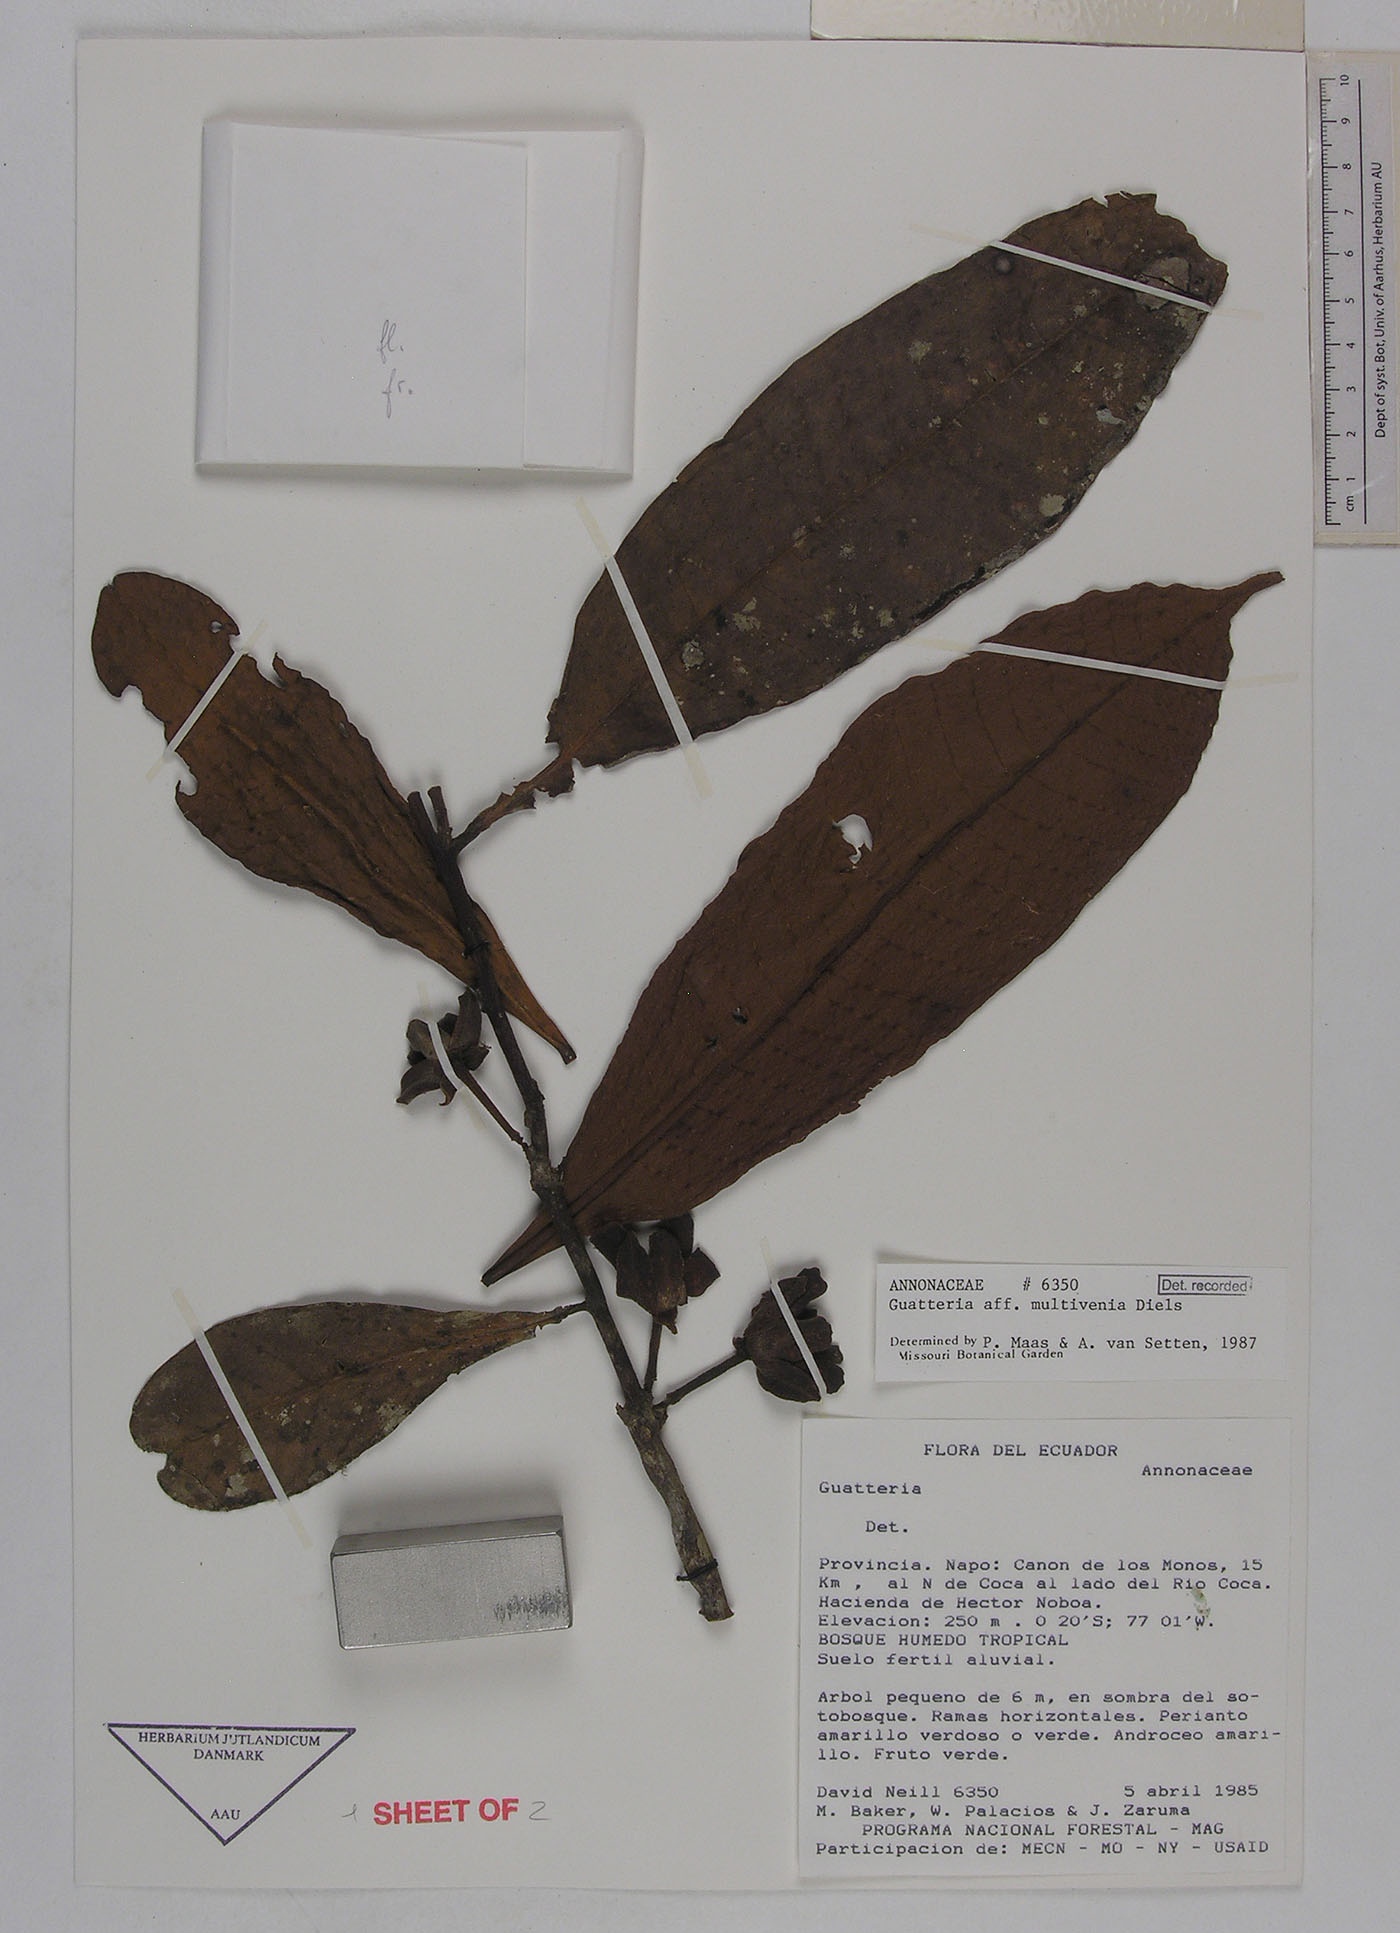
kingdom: Plantae
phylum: Tracheophyta
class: Magnoliopsida
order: Magnoliales
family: Annonaceae
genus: Guatteria
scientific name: Guatteria decurrens
